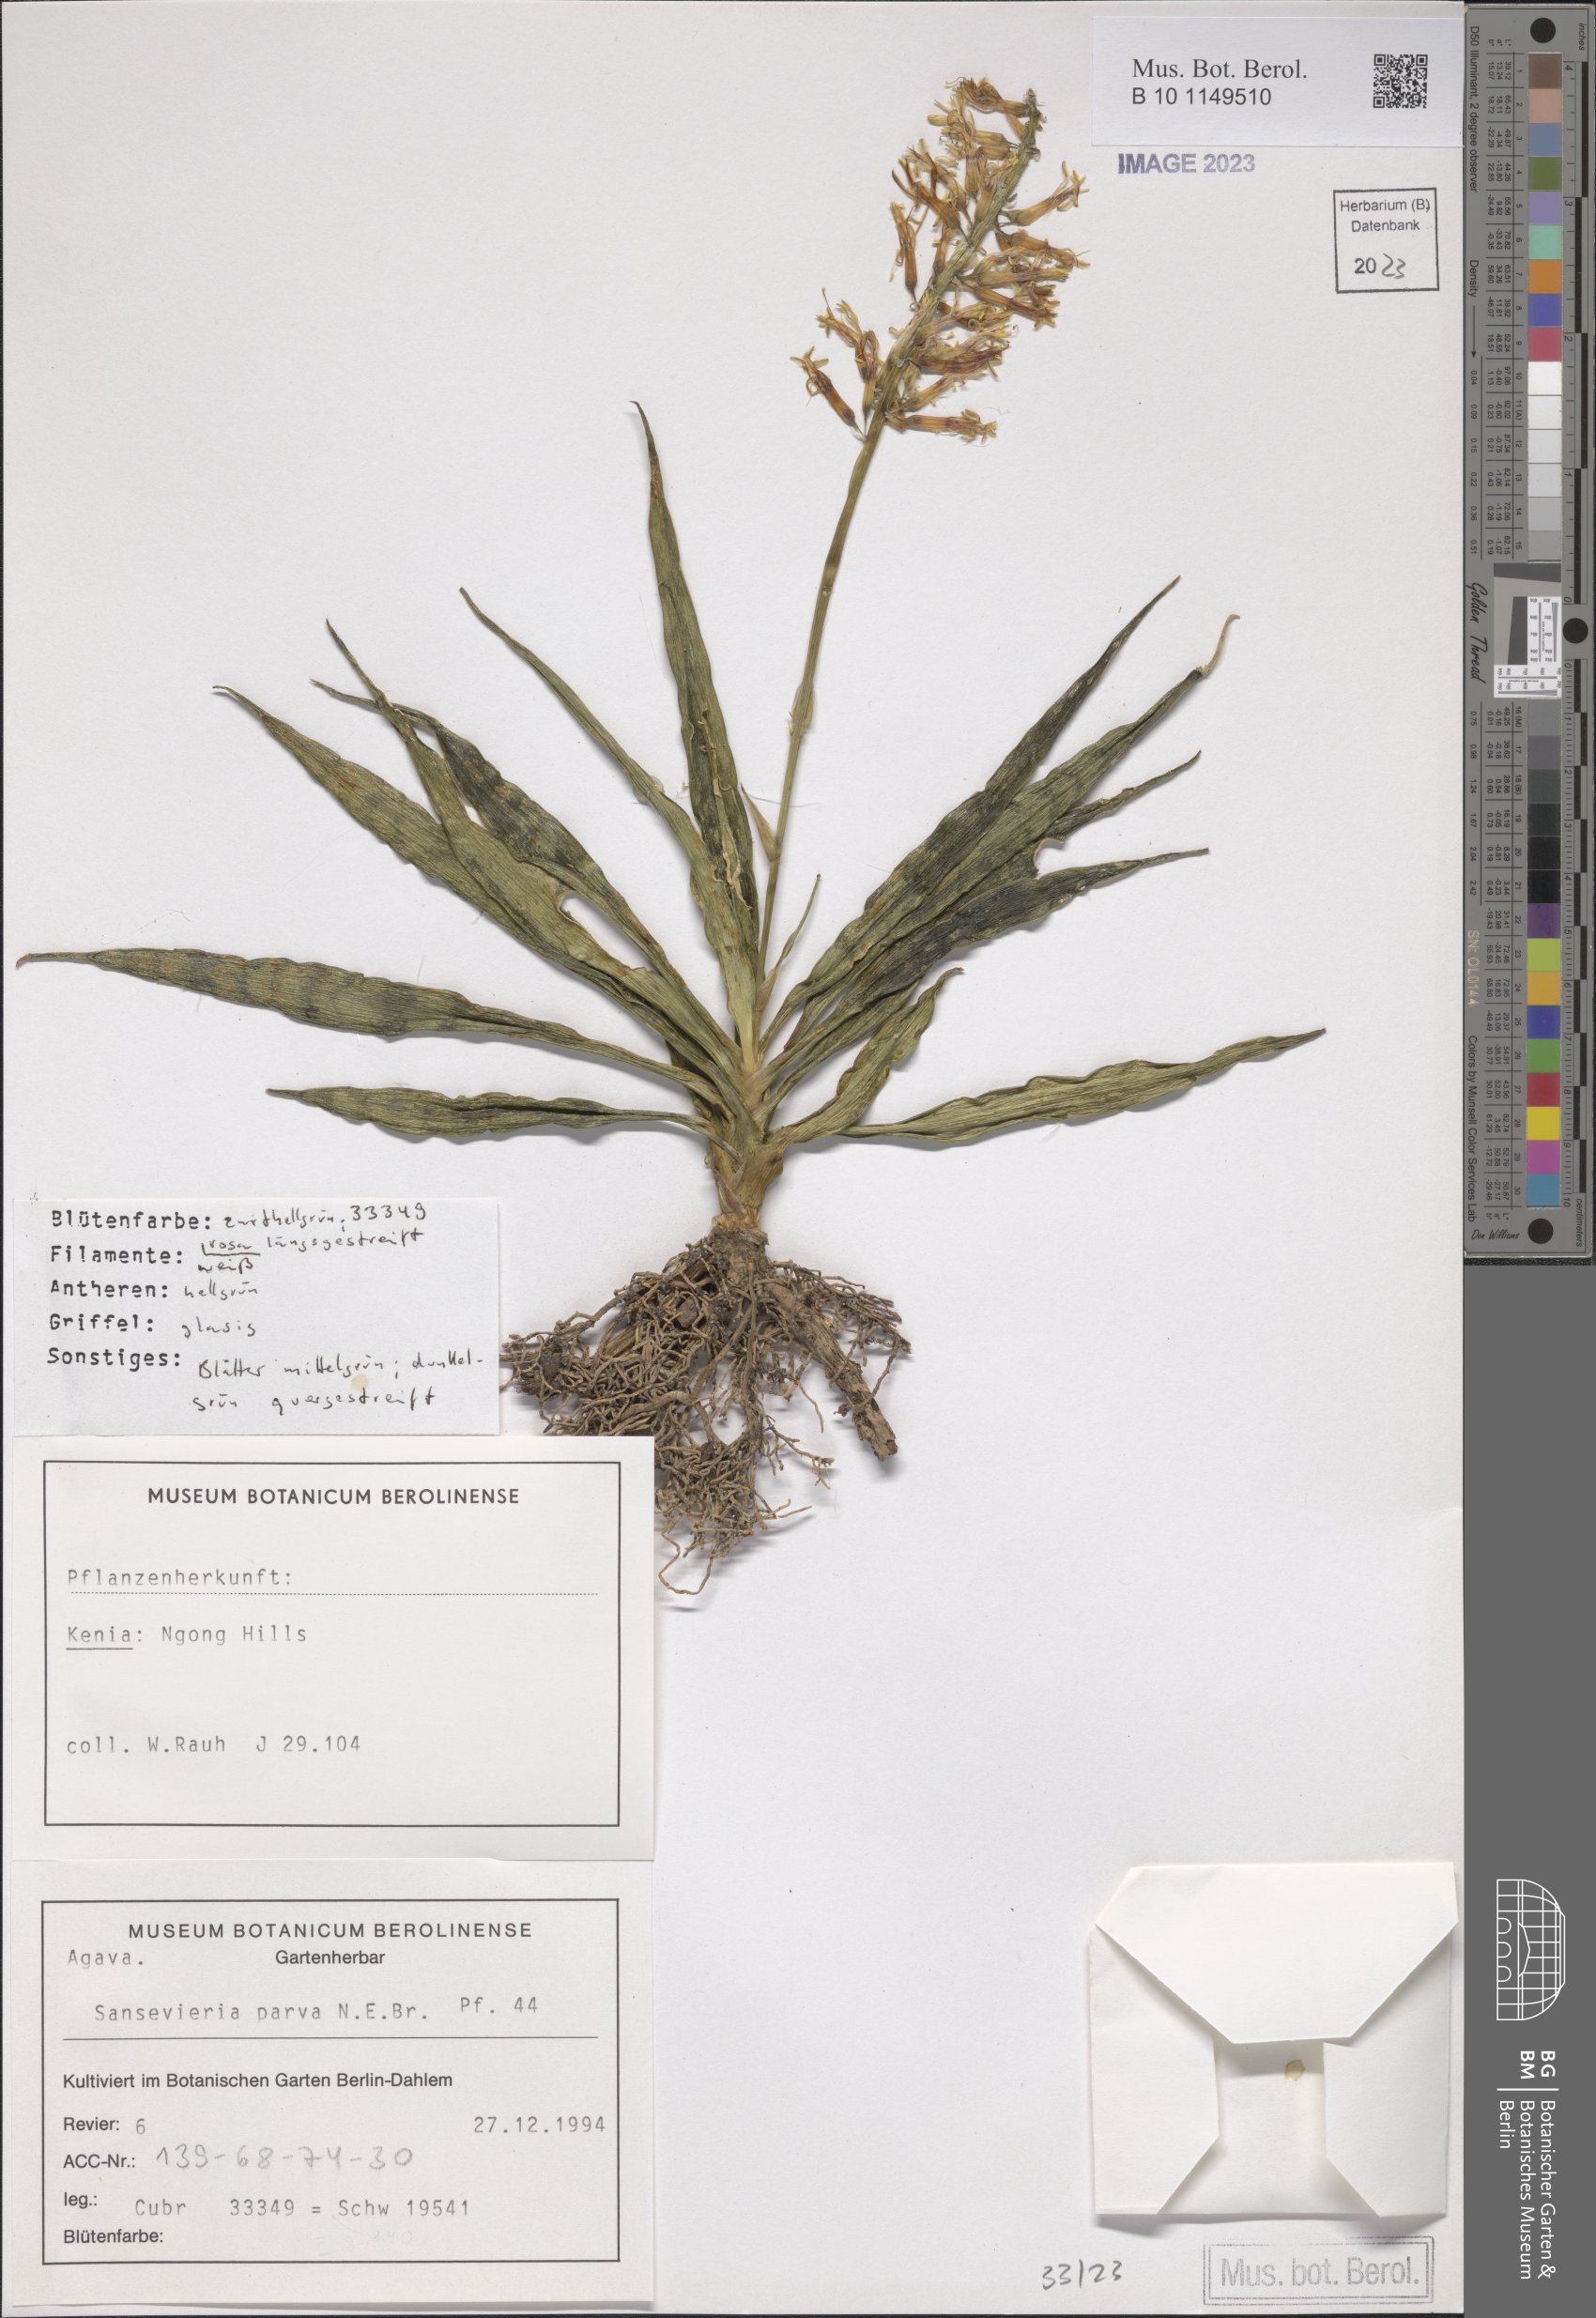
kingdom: Plantae
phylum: Tracheophyta
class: Liliopsida
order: Asparagales
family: Asparagaceae
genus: Dracaena
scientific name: Dracaena parva
